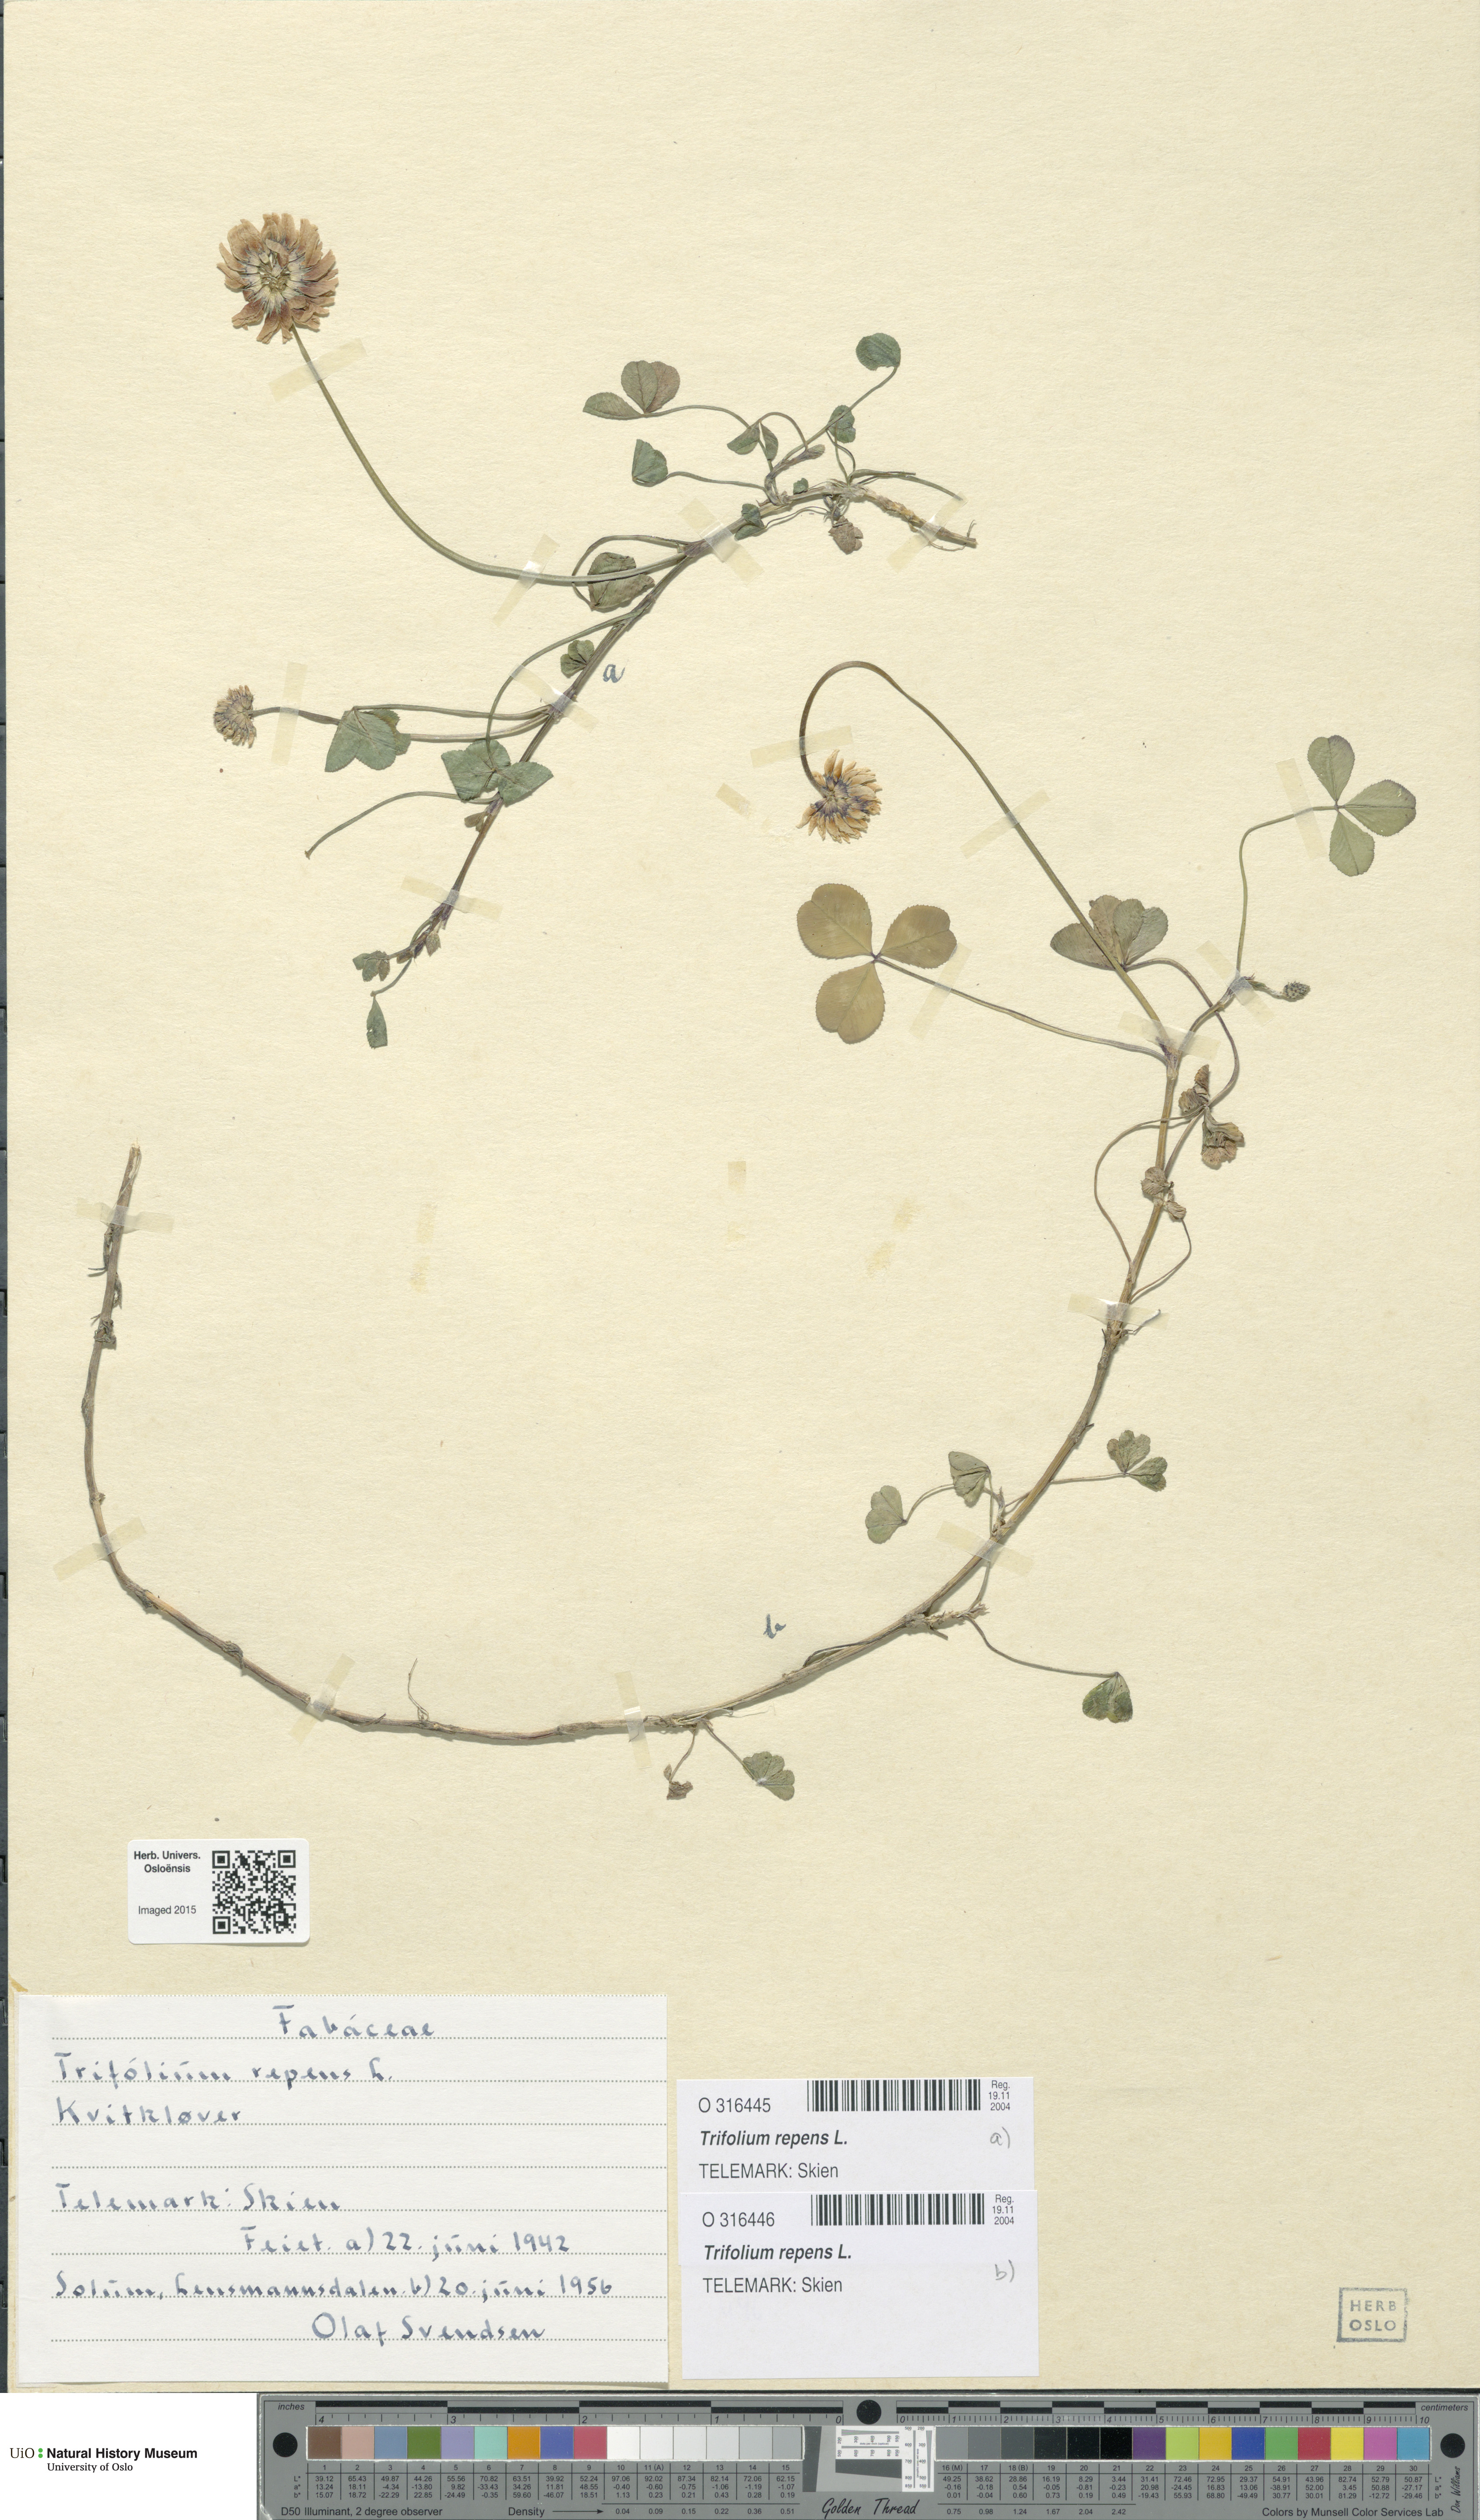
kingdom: Plantae
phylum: Tracheophyta
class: Magnoliopsida
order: Fabales
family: Fabaceae
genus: Trifolium
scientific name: Trifolium repens
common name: White clover
